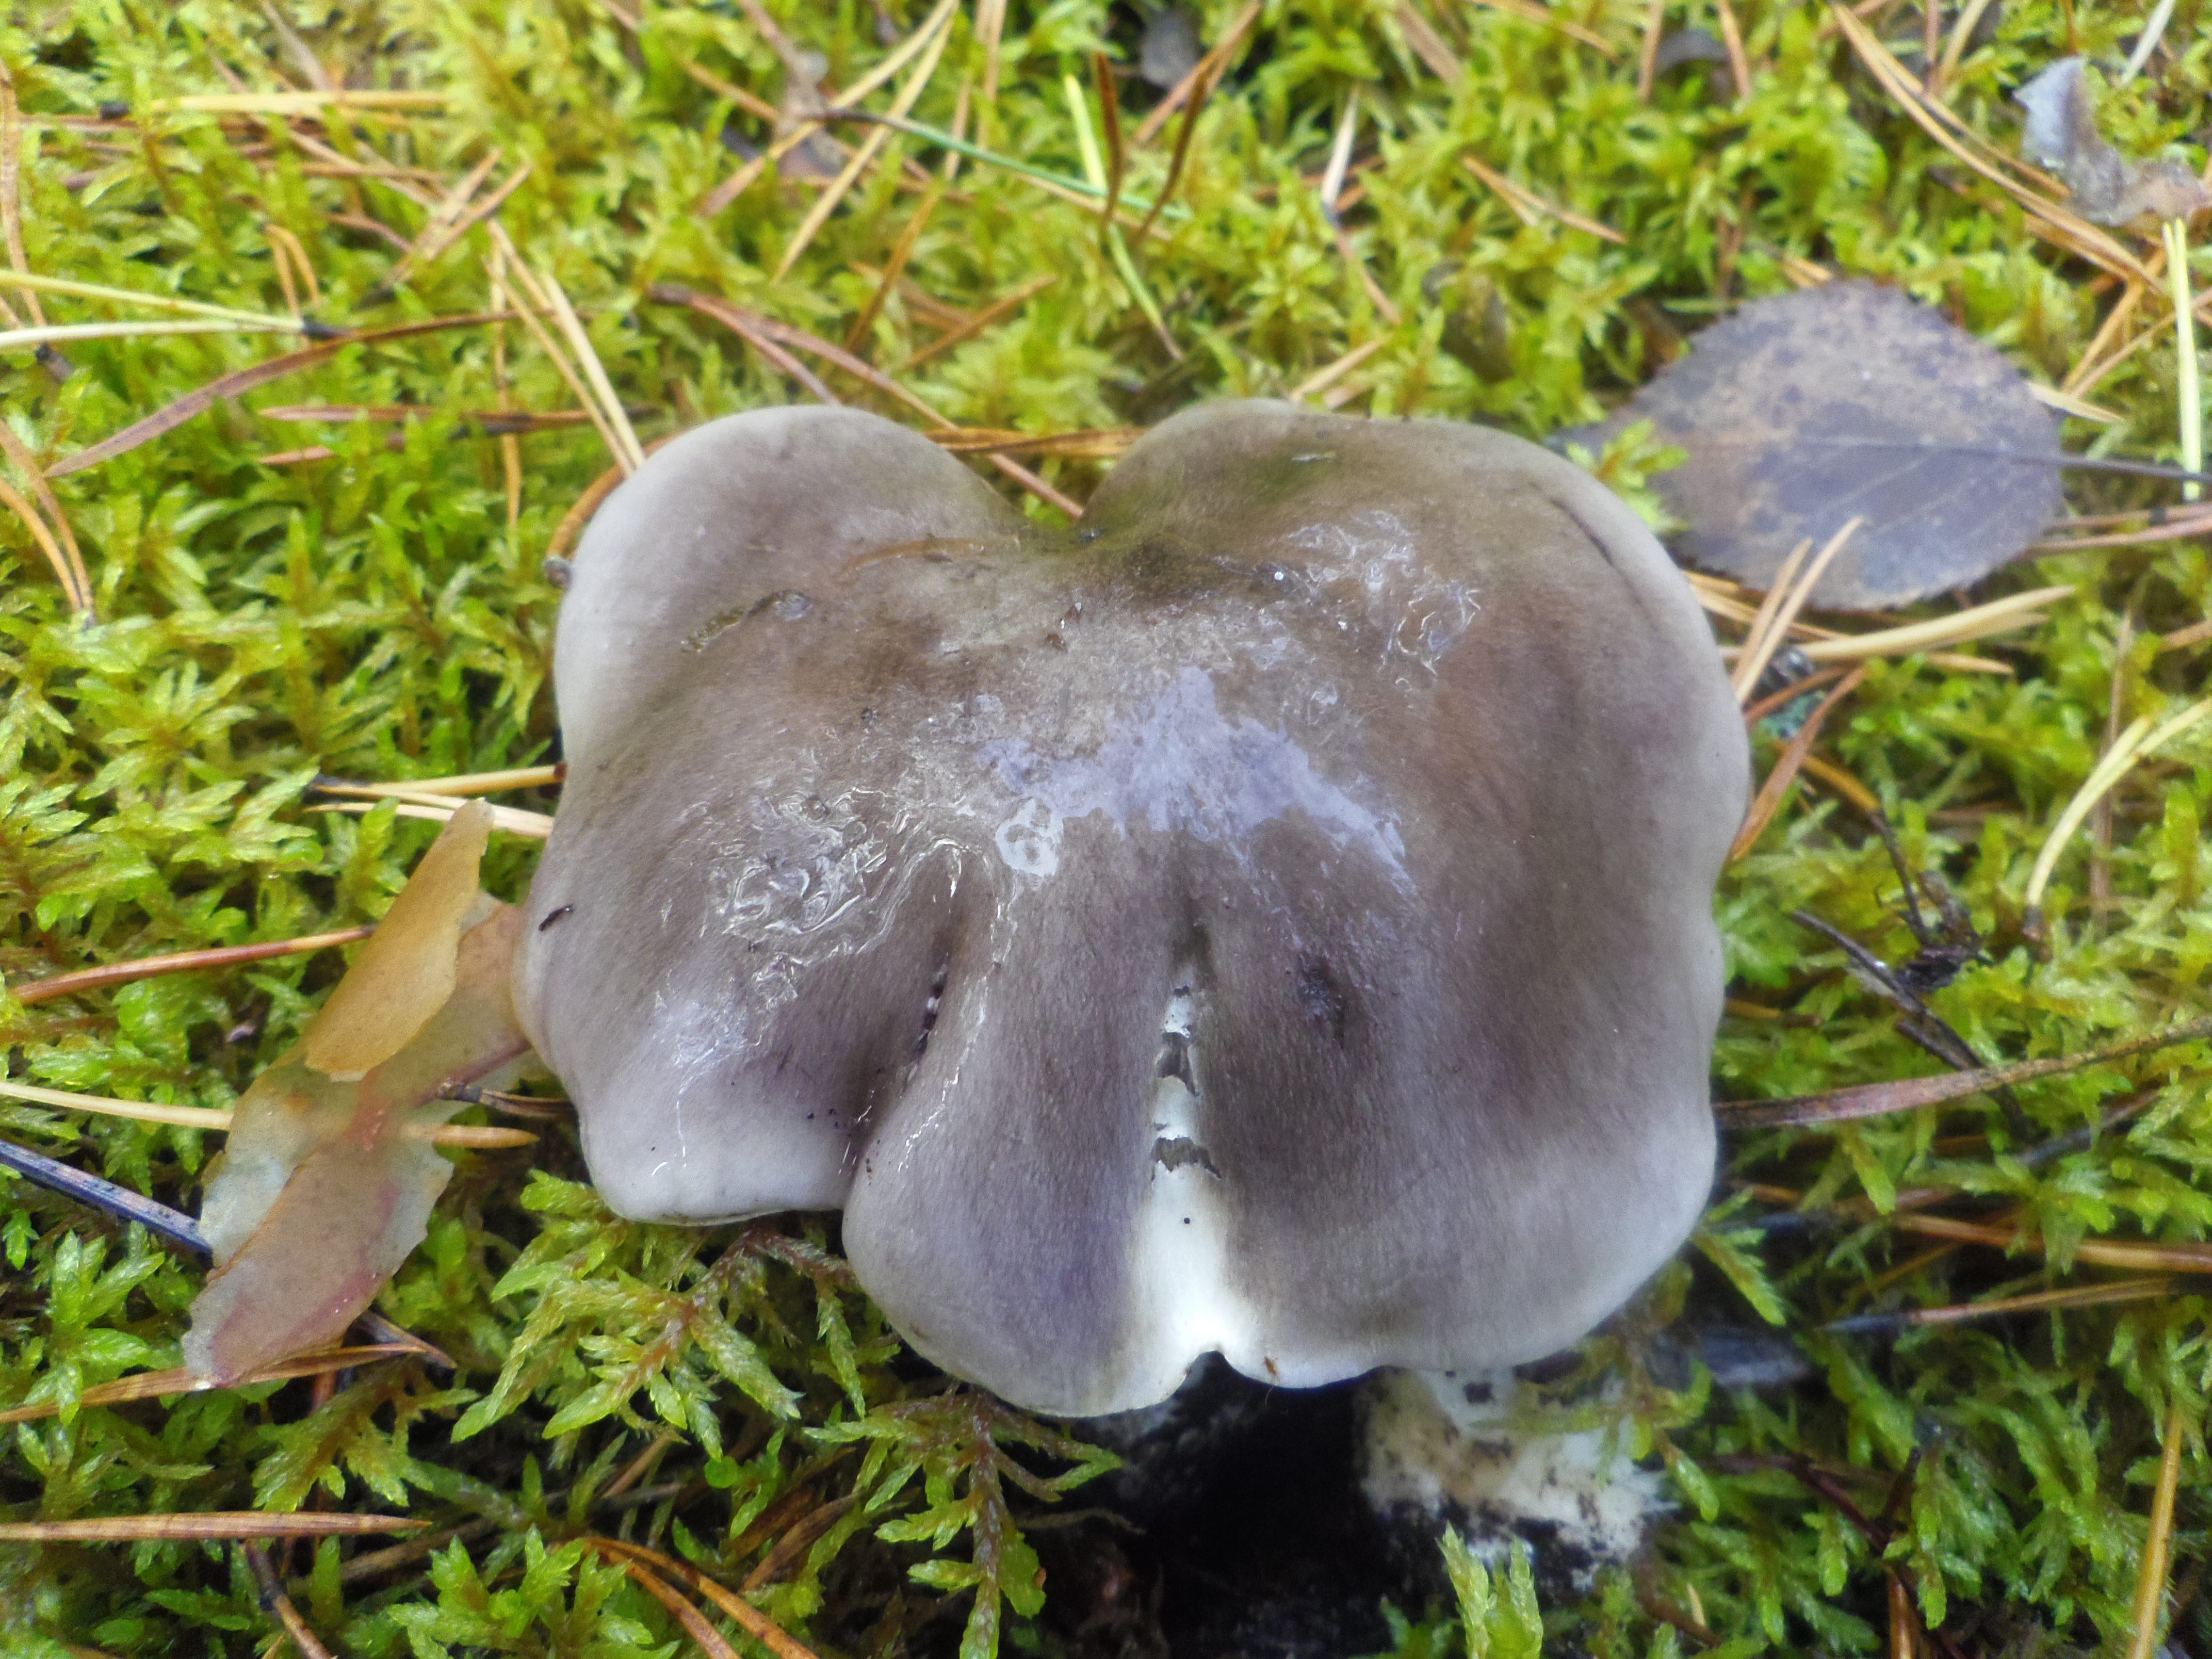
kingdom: Fungi
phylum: Basidiomycota
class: Agaricomycetes
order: Agaricales
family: Tricholomataceae
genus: Tricholoma
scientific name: Tricholoma portentosum
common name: Coalman
